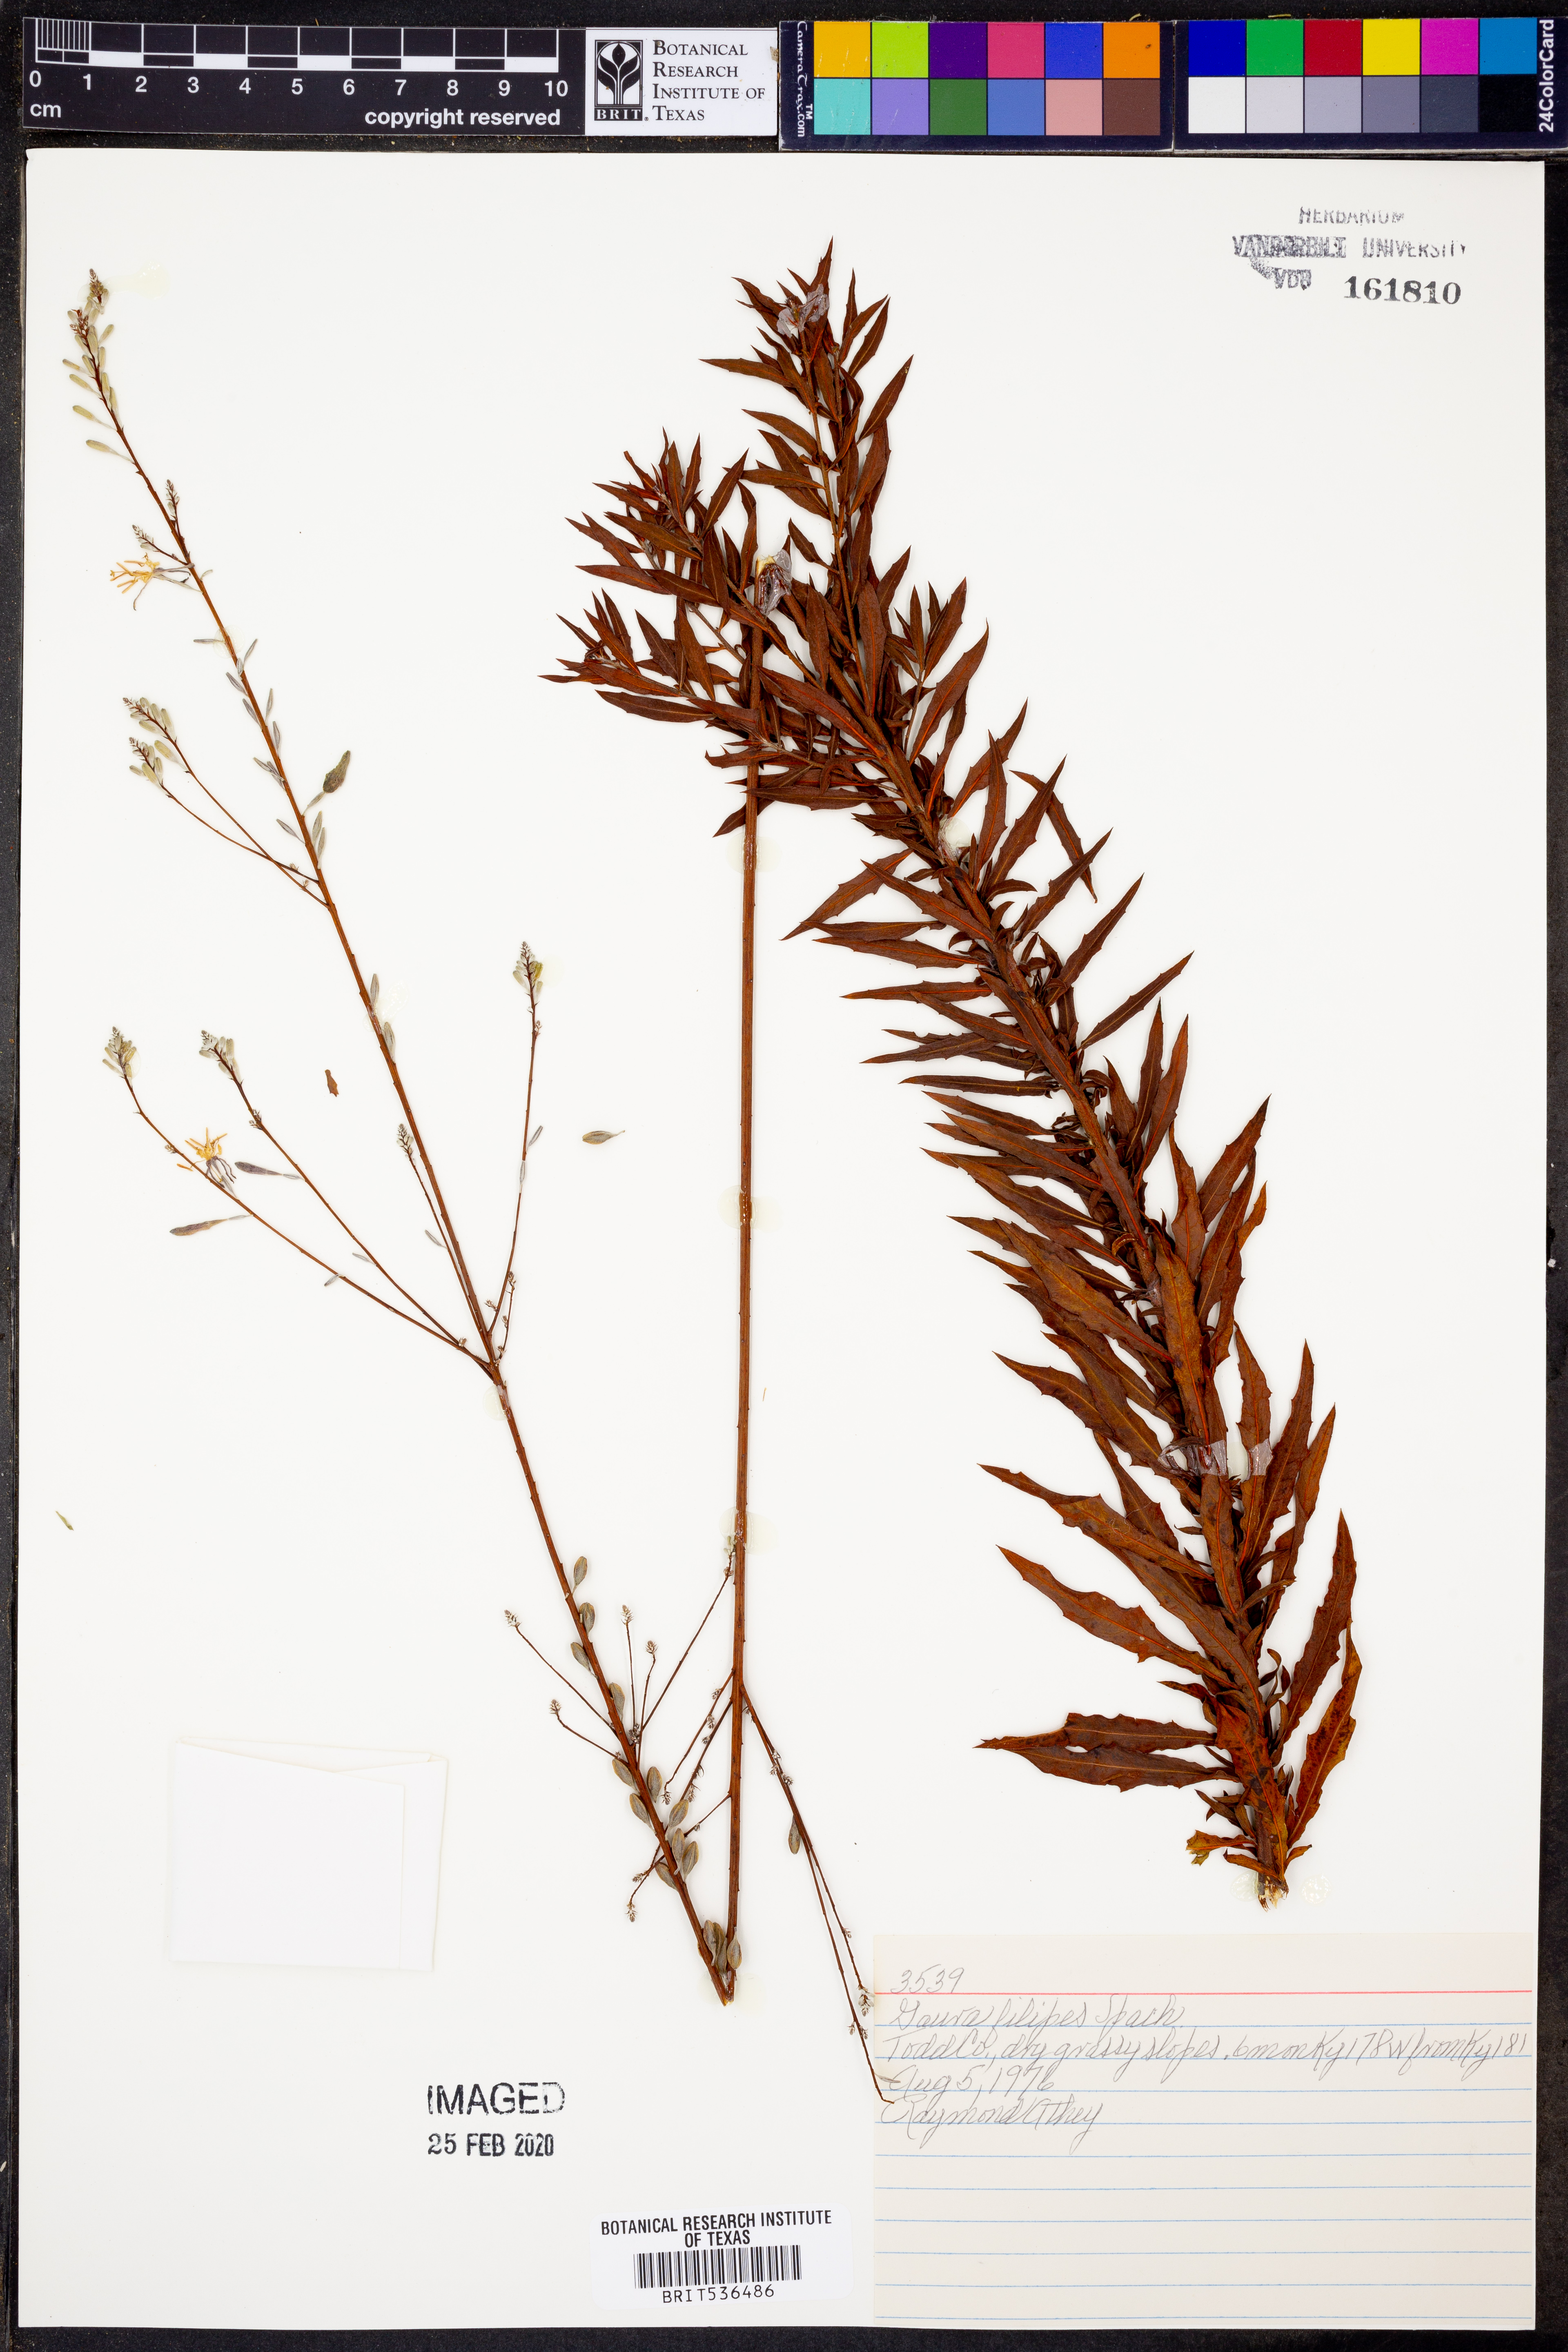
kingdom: Plantae
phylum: Tracheophyta
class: Magnoliopsida
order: Myrtales
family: Onagraceae
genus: Oenothera
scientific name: Oenothera filipes
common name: Slenderstalk beeblossom
